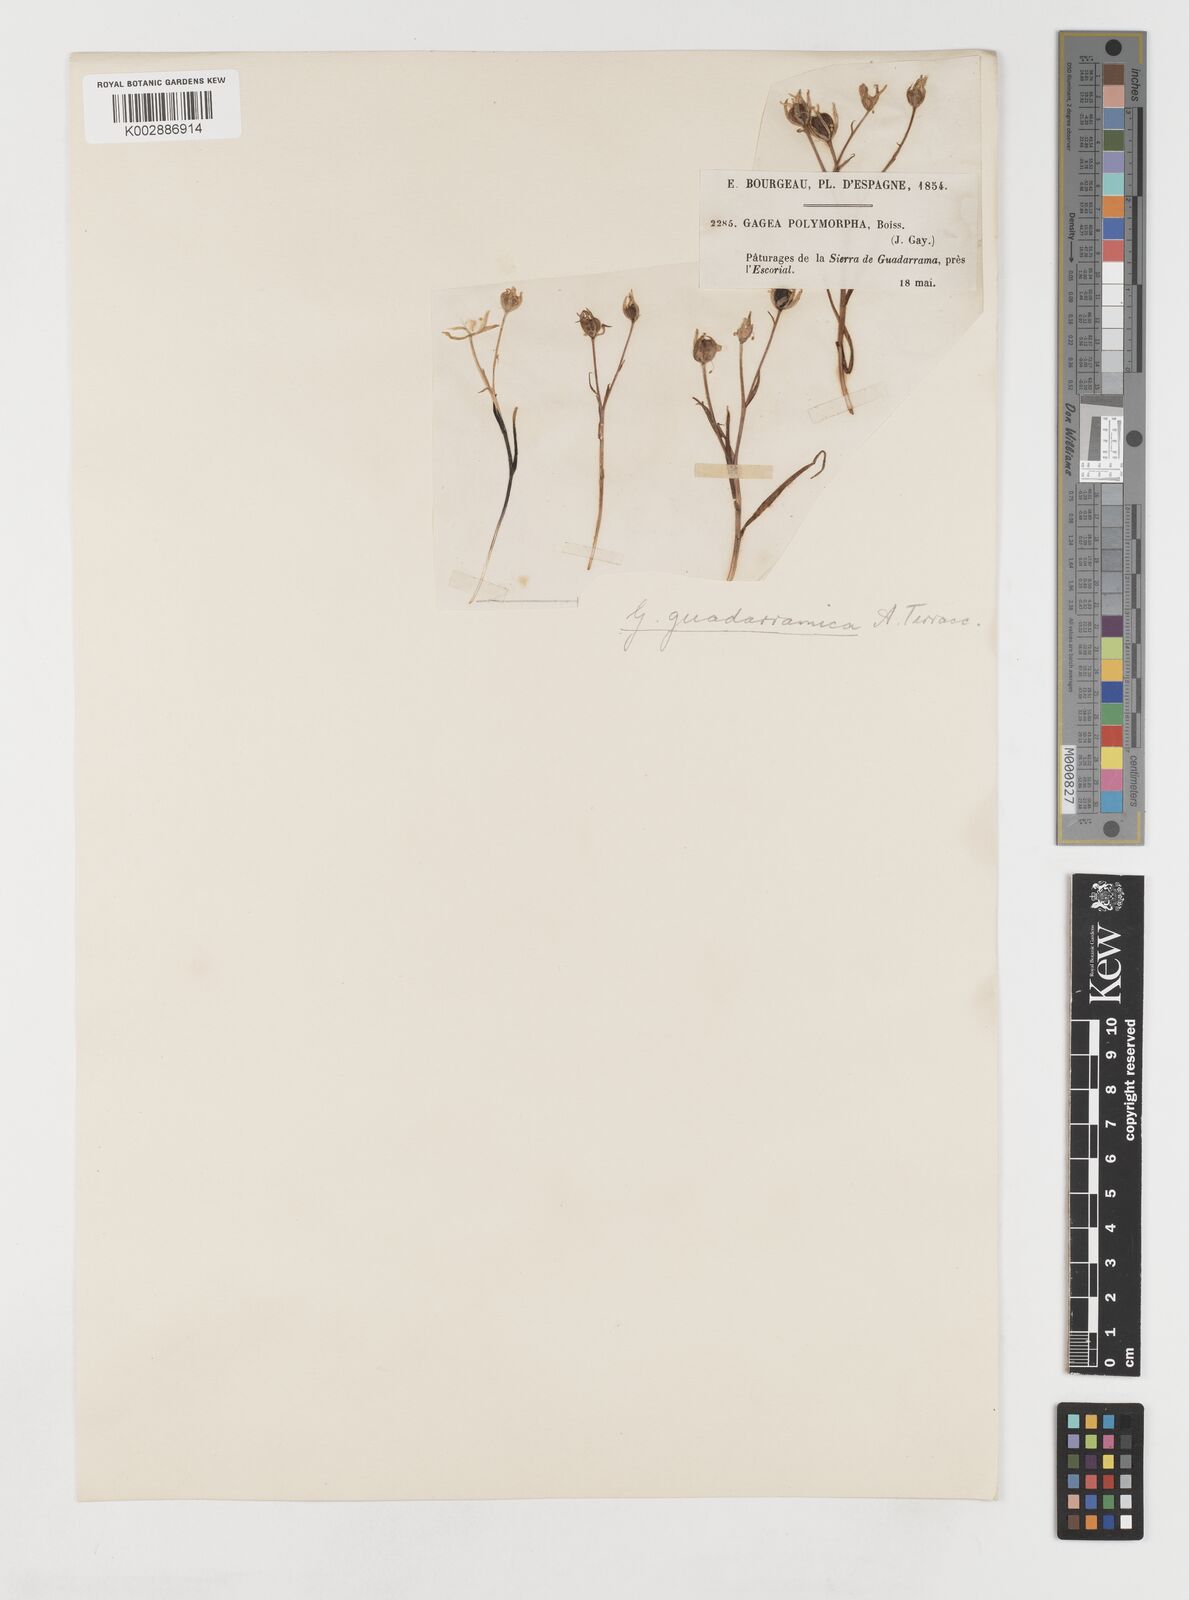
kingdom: Plantae
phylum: Tracheophyta
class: Liliopsida
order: Liliales
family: Liliaceae
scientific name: Liliaceae
